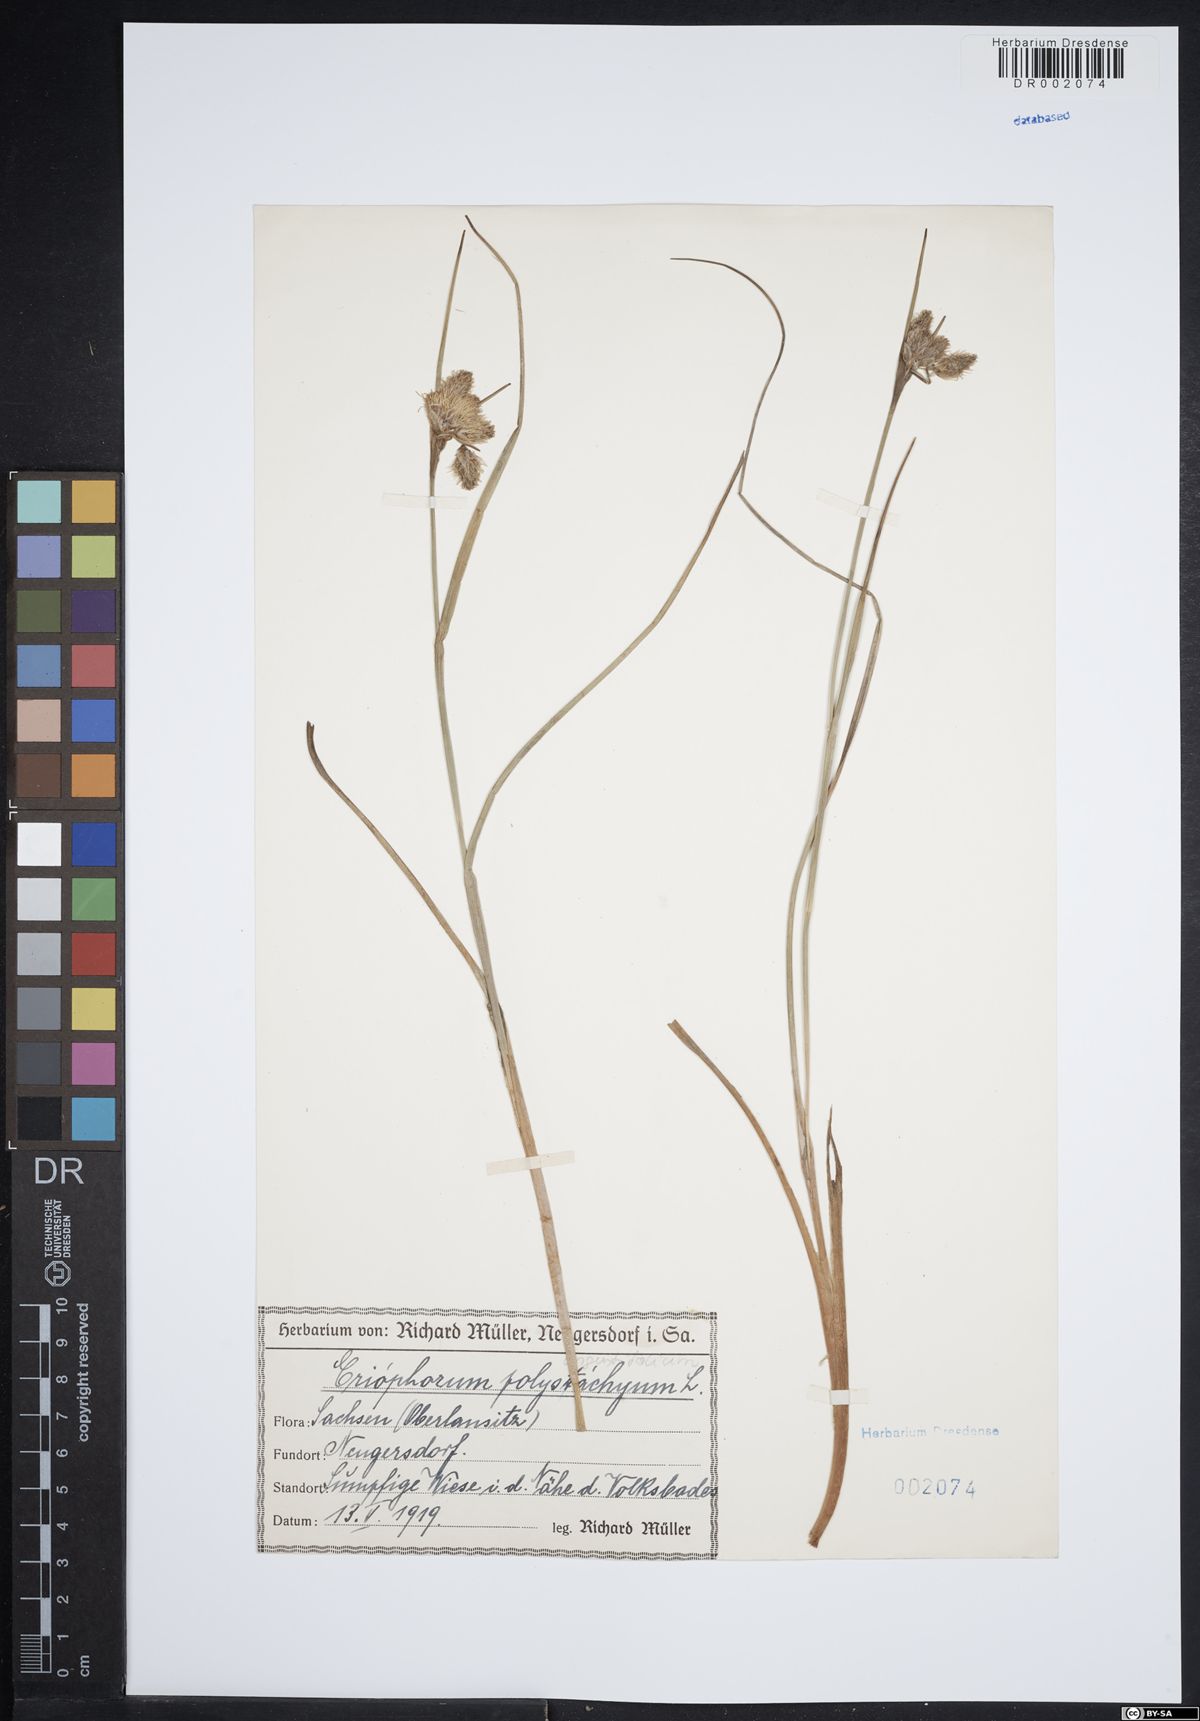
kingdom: Plantae
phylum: Tracheophyta
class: Liliopsida
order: Poales
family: Cyperaceae
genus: Eriophorum
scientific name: Eriophorum angustifolium
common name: Common cottongrass
